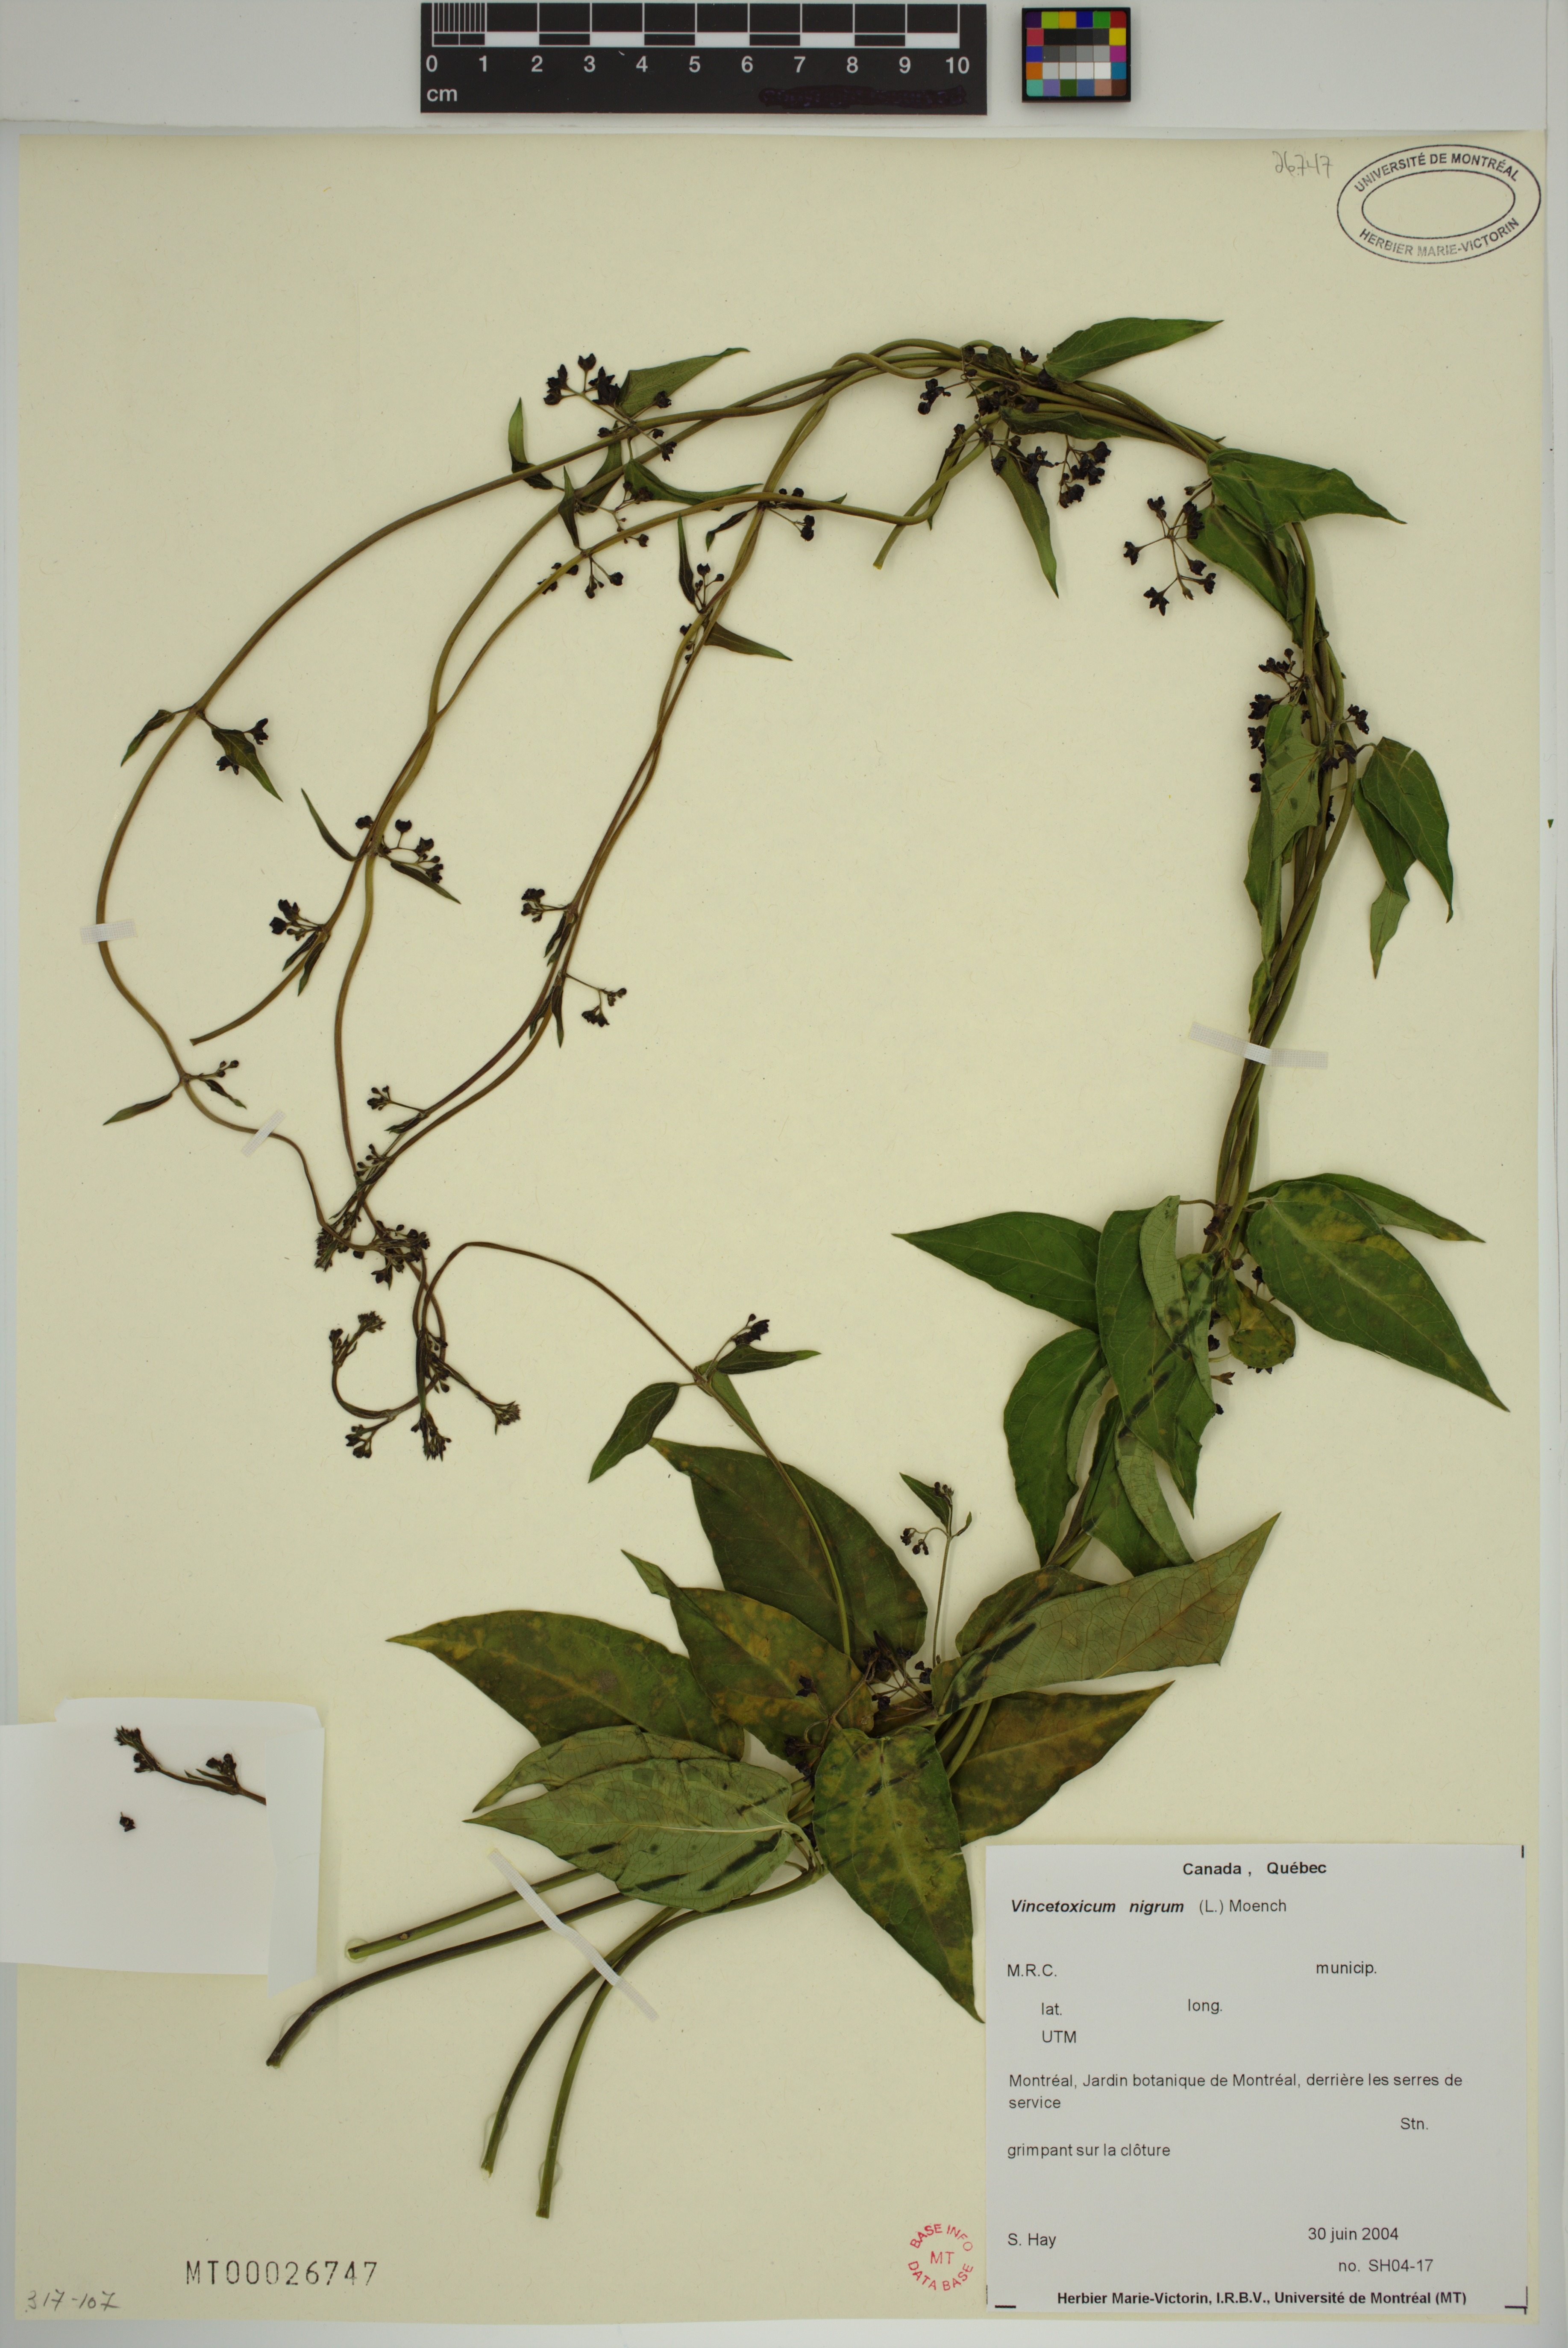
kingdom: Plantae
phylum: Tracheophyta
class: Magnoliopsida
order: Gentianales
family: Apocynaceae
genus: Vincetoxicum
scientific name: Vincetoxicum nigrum
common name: Black swallow-wort
